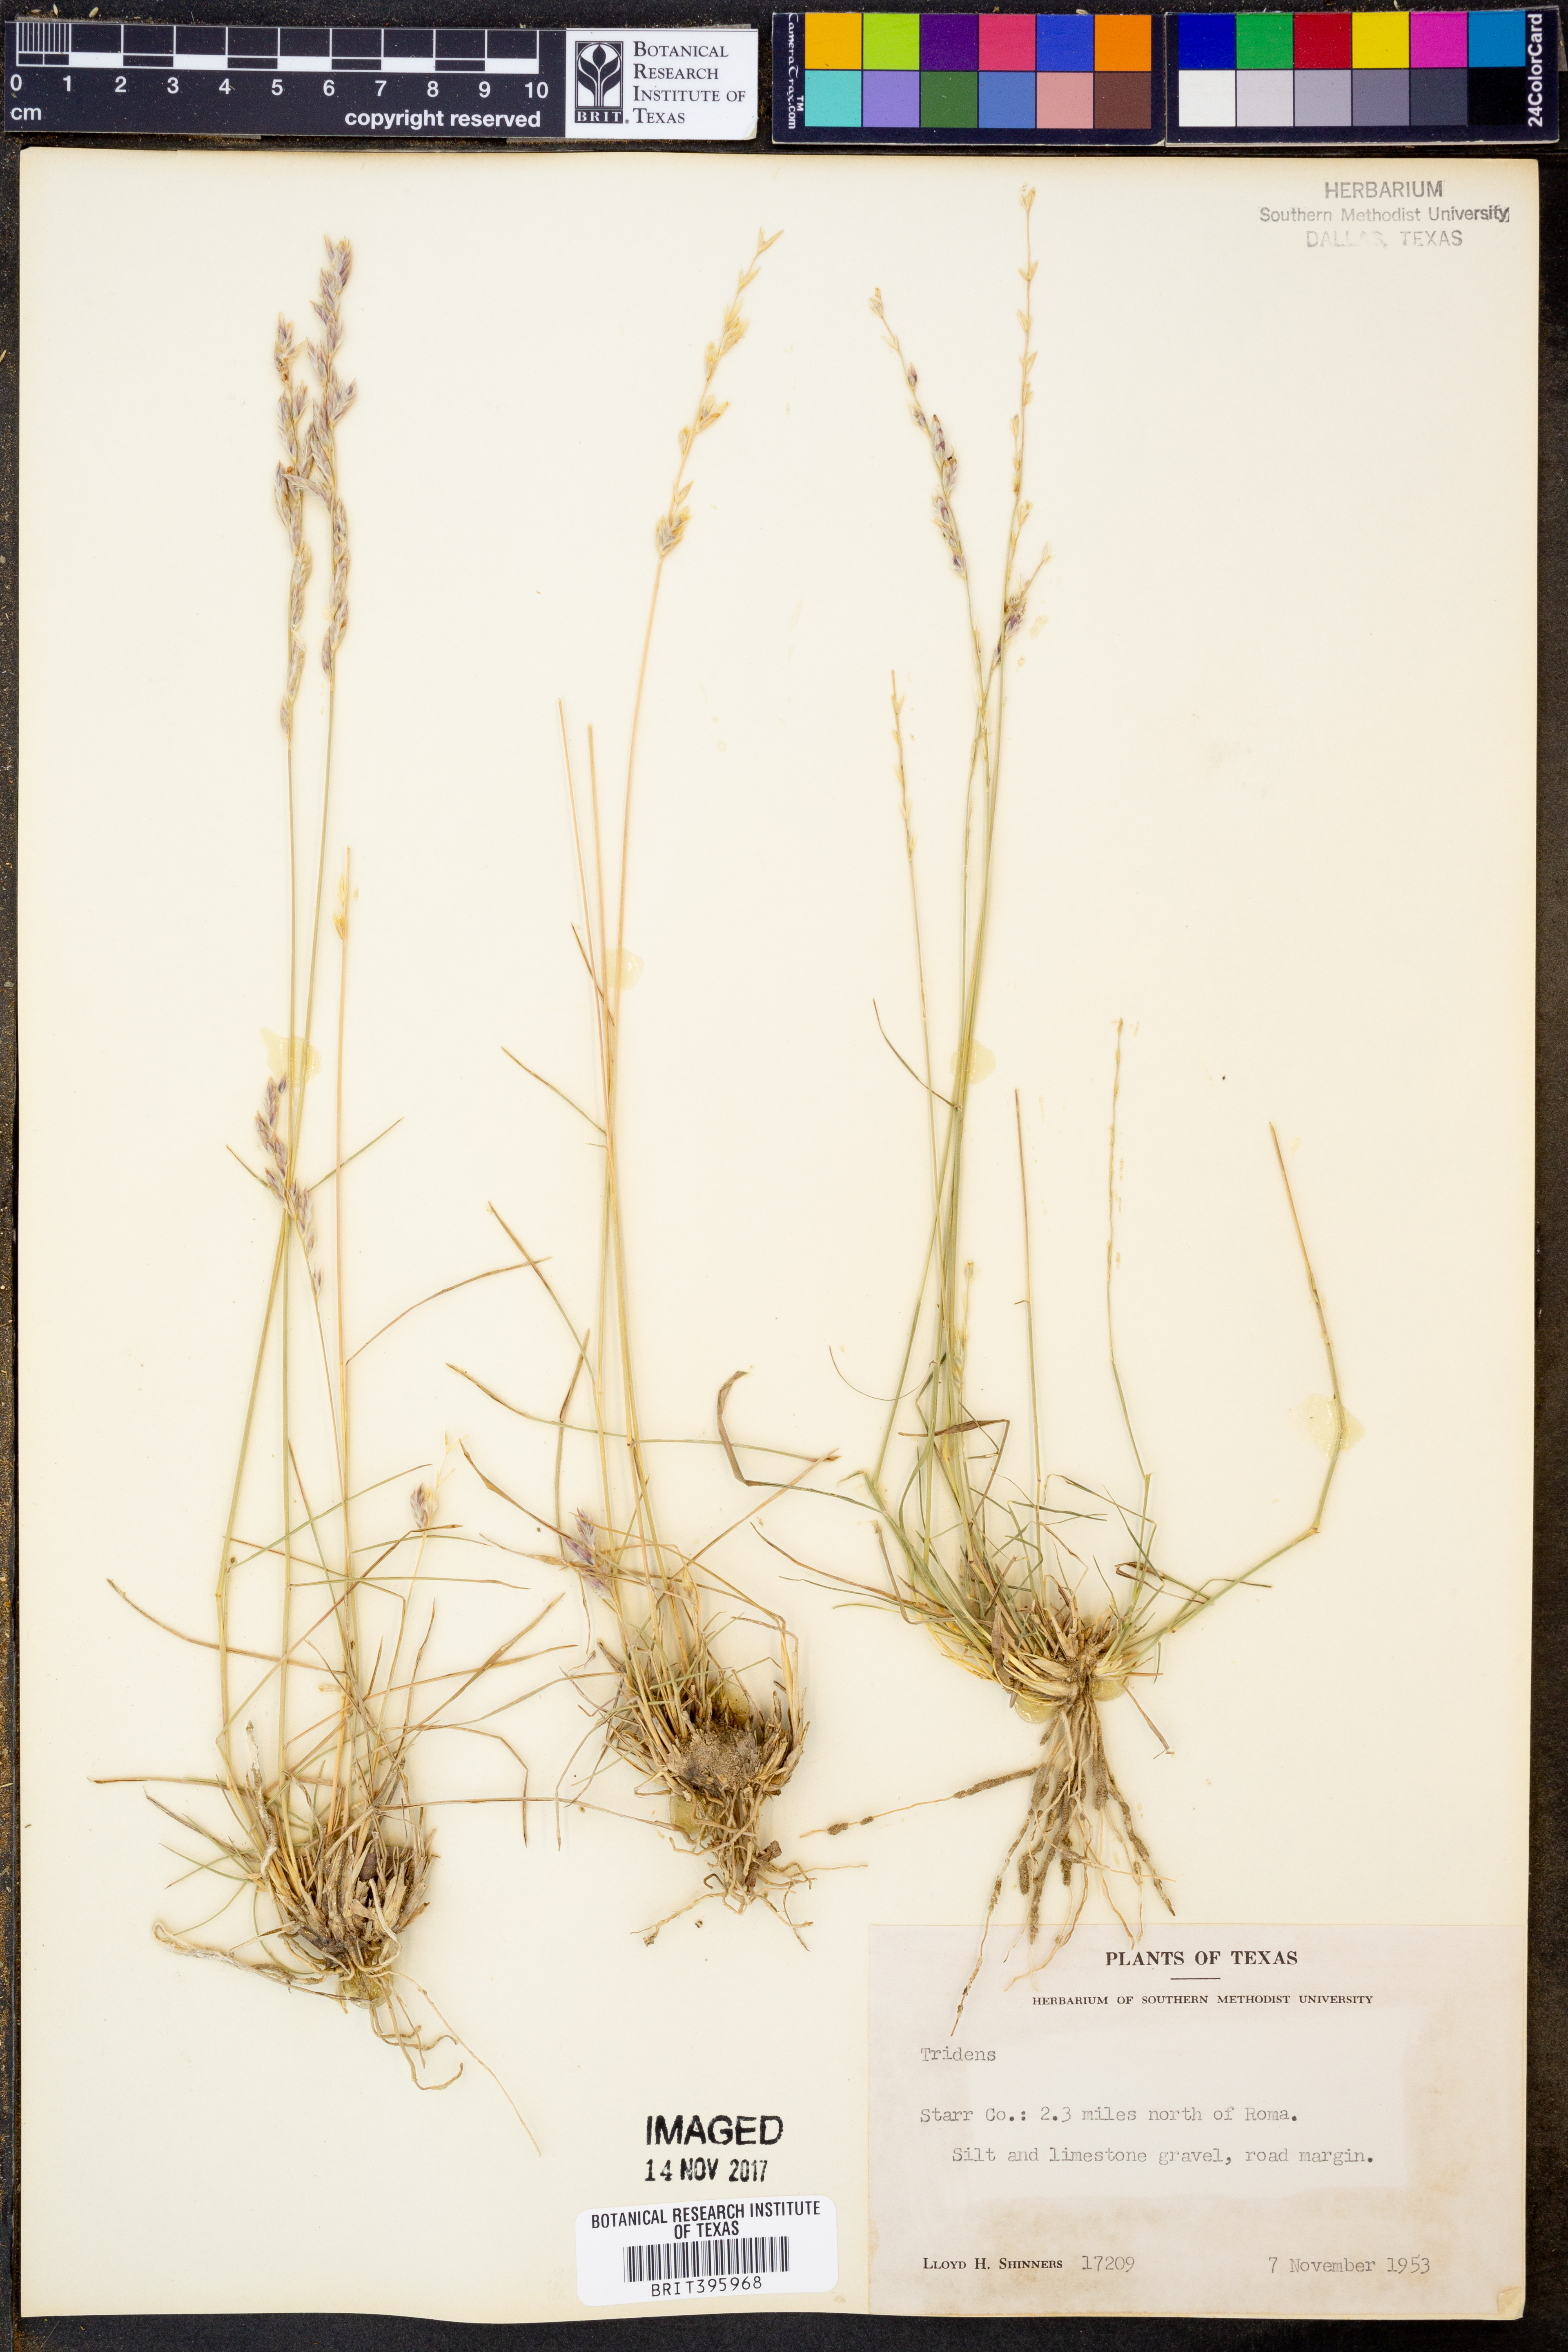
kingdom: Plantae
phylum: Tracheophyta
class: Liliopsida
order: Poales
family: Poaceae
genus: Tridens
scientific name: Tridens
